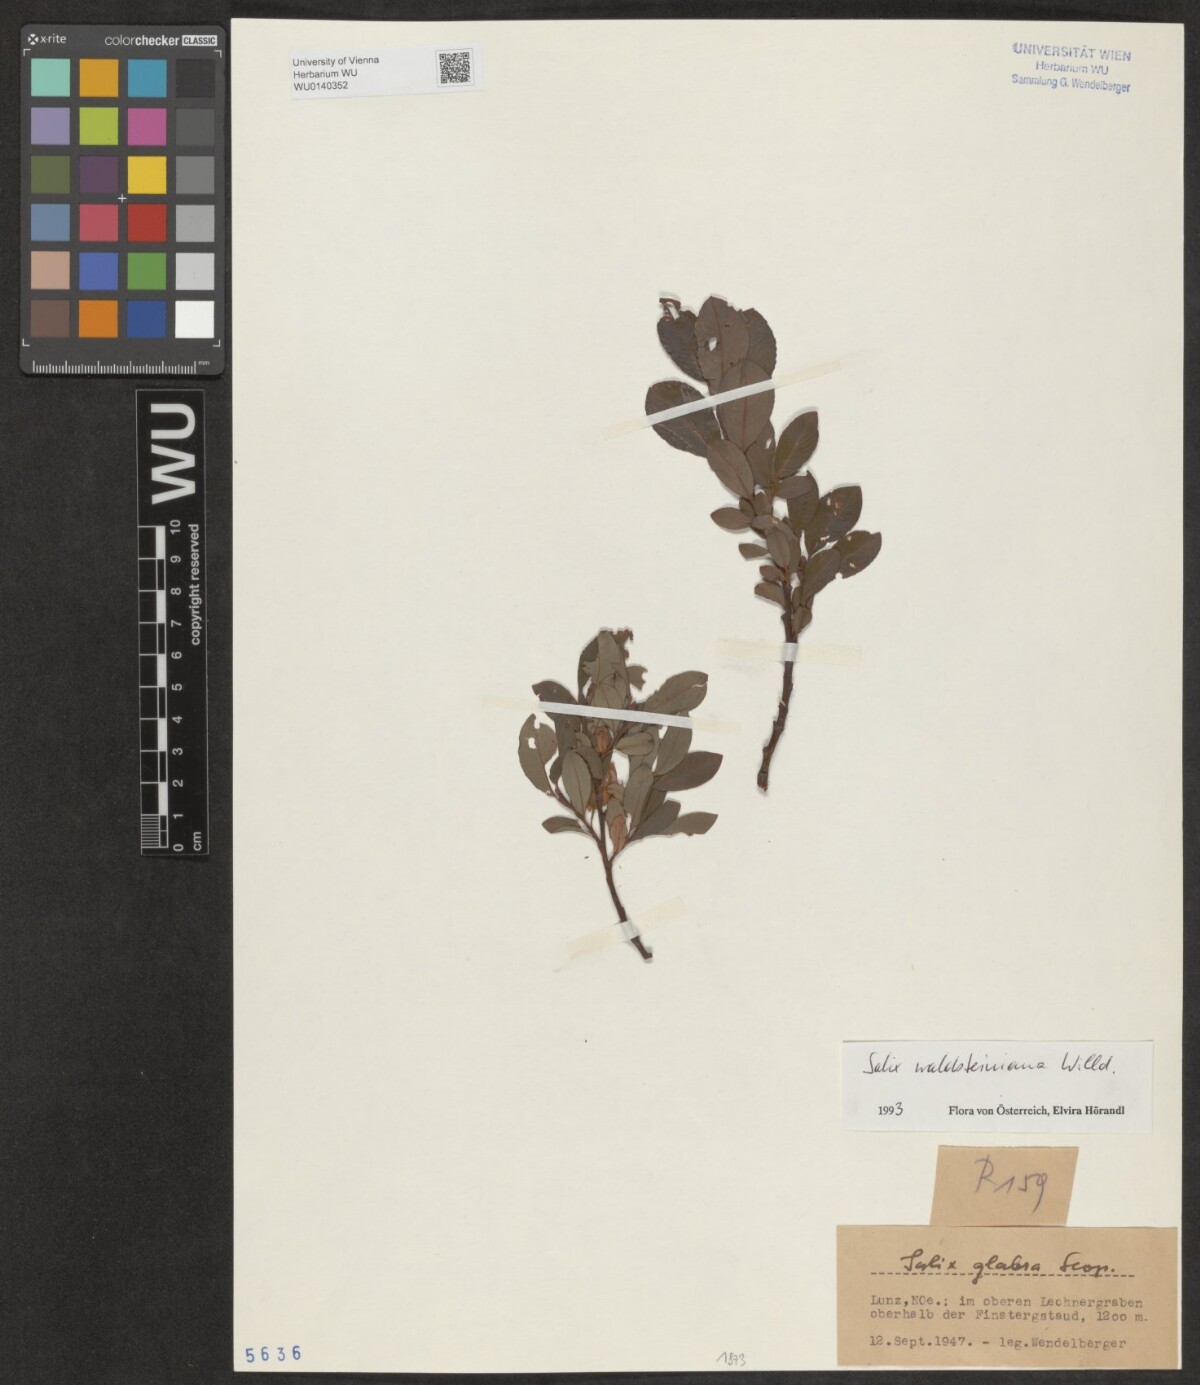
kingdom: Plantae
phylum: Tracheophyta
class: Magnoliopsida
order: Malpighiales
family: Salicaceae
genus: Salix
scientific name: Salix waldsteiniana
